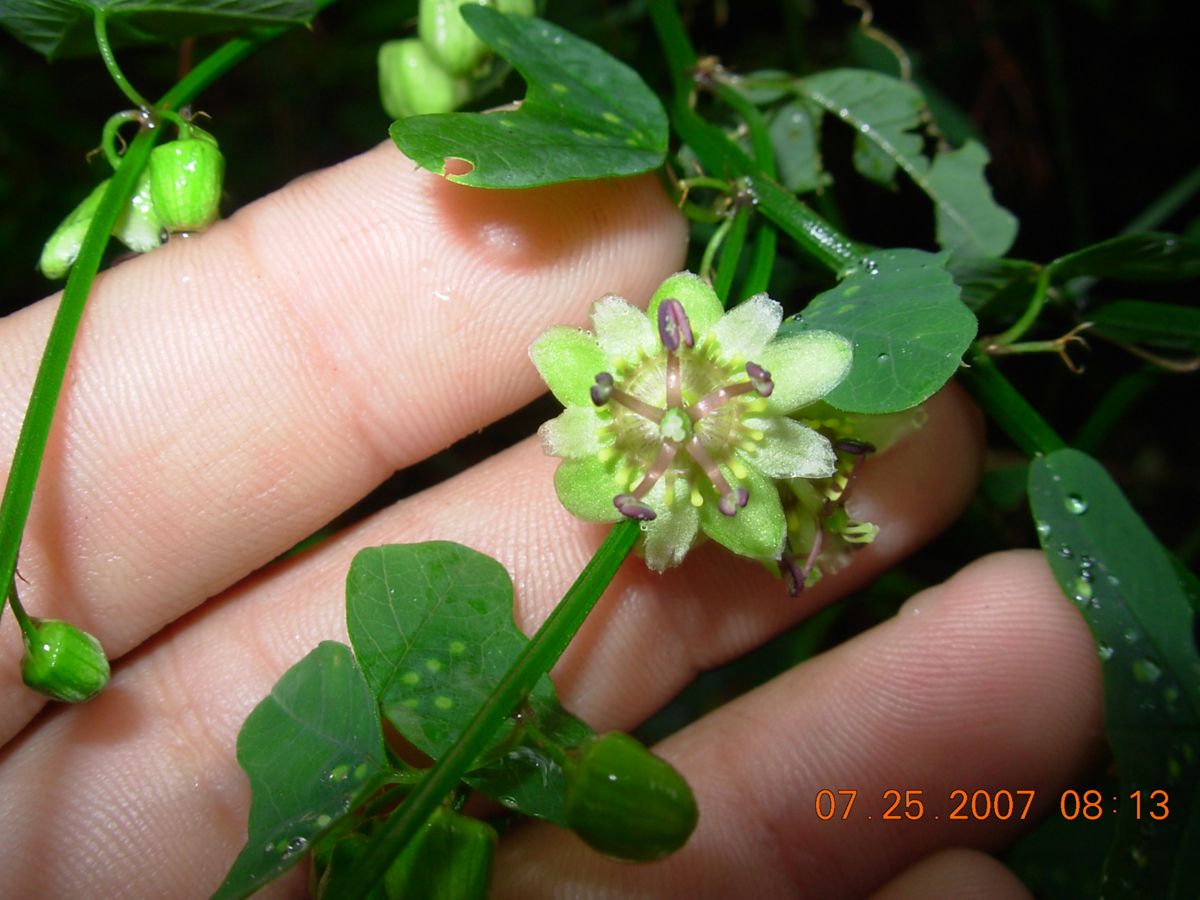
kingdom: Plantae
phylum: Tracheophyta
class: Magnoliopsida
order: Malpighiales
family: Passifloraceae
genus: Passiflora
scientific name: Passiflora allantophylla
